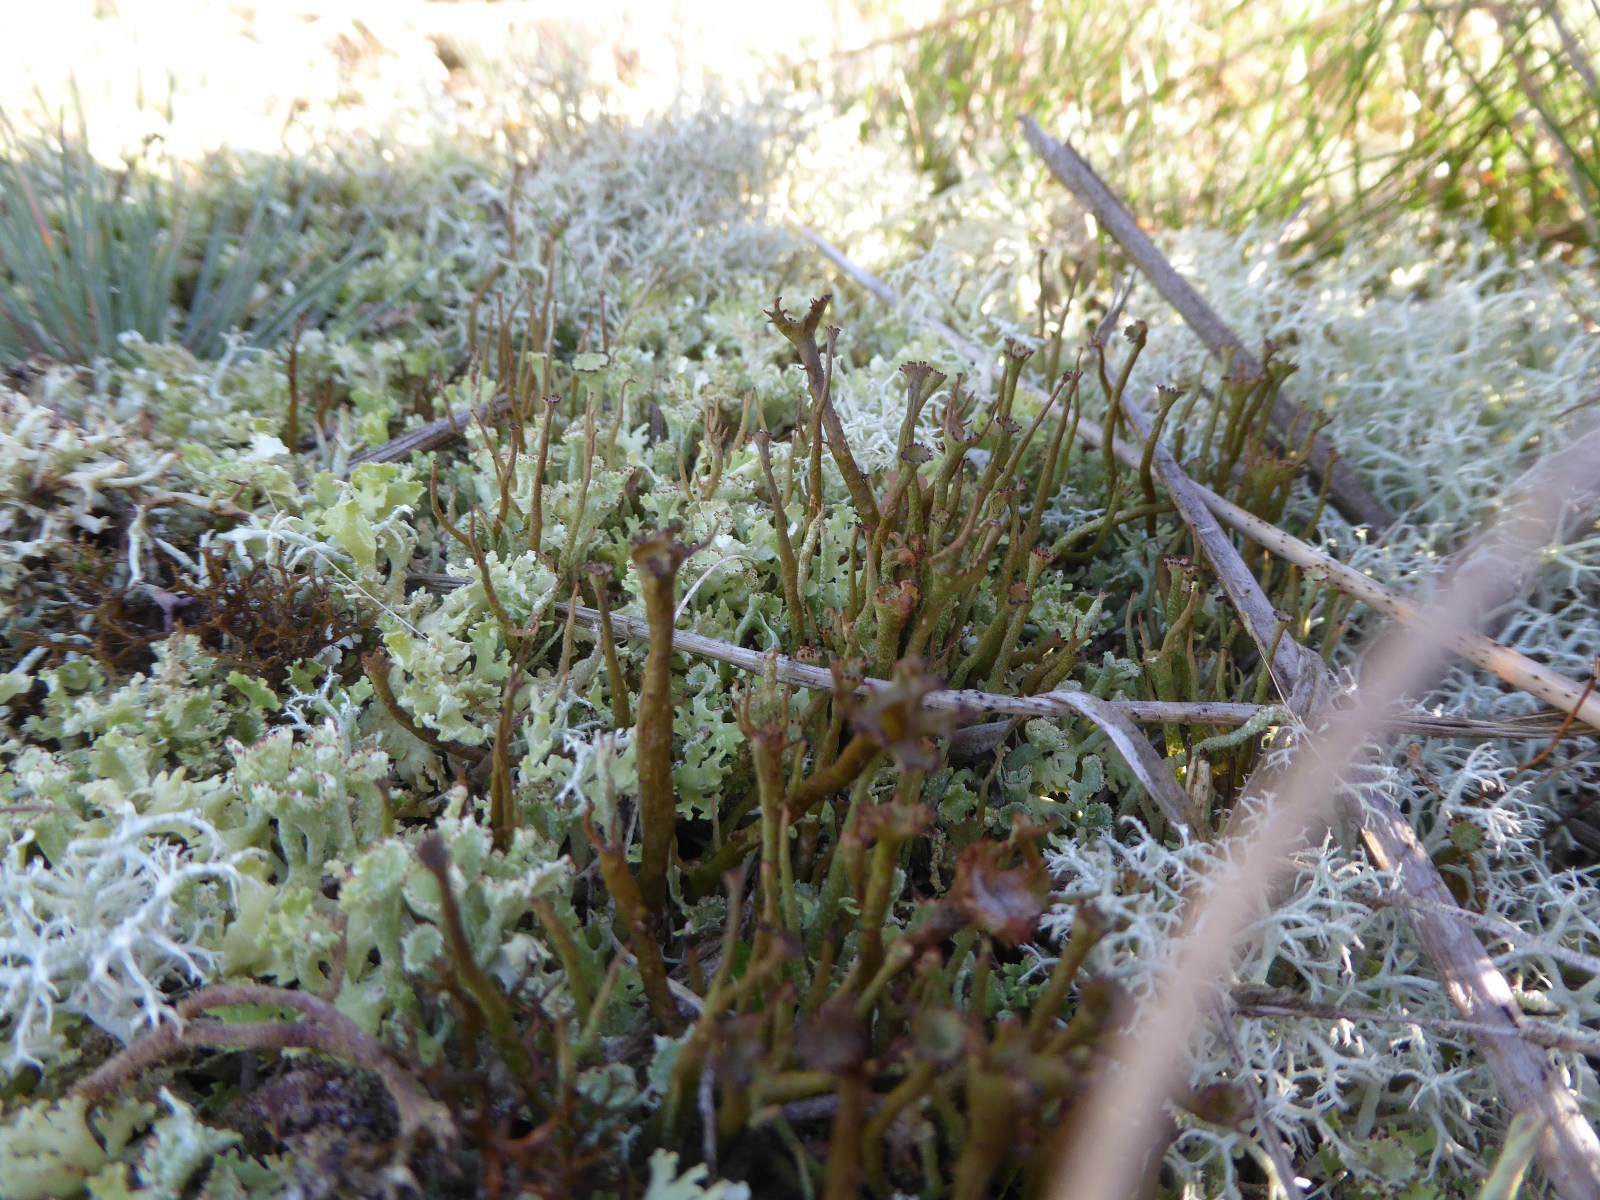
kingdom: Fungi
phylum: Ascomycota
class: Lecanoromycetes
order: Lecanorales
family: Cladoniaceae
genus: Cladonia
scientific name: Cladonia gracilis
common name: slank bægerlav
